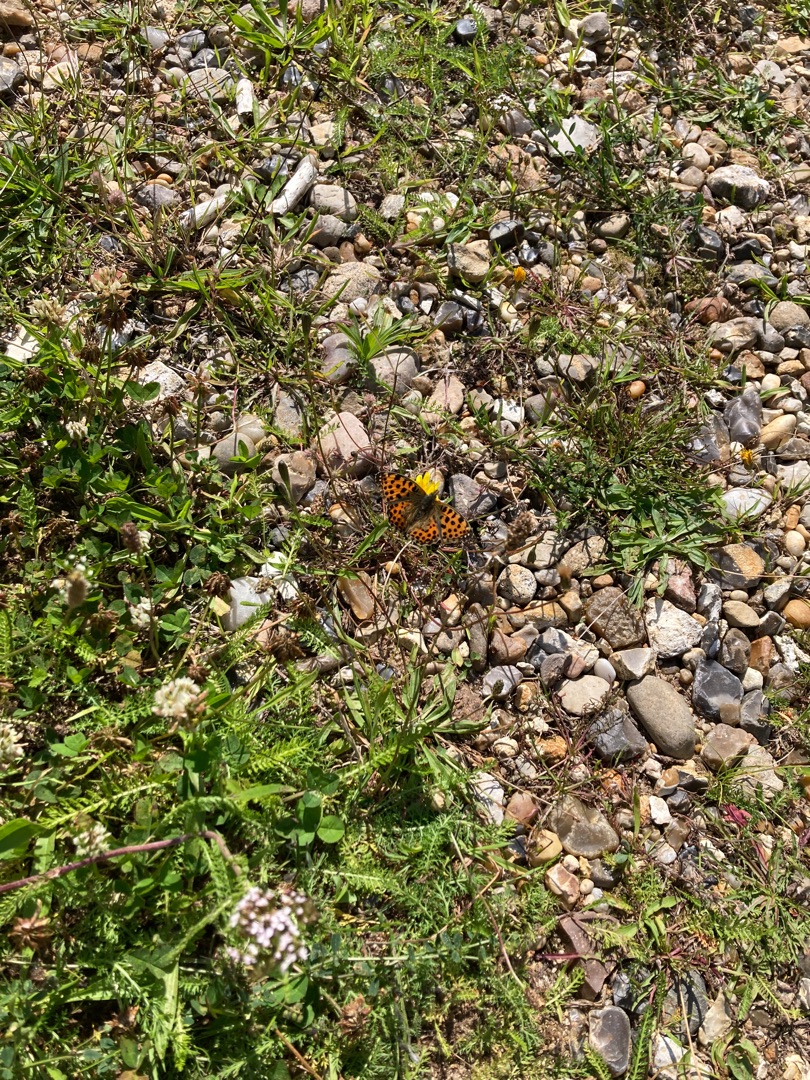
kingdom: Animalia
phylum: Arthropoda
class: Insecta
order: Lepidoptera
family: Nymphalidae
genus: Issoria
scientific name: Issoria lathonia
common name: Storplettet perlemorsommerfugl
